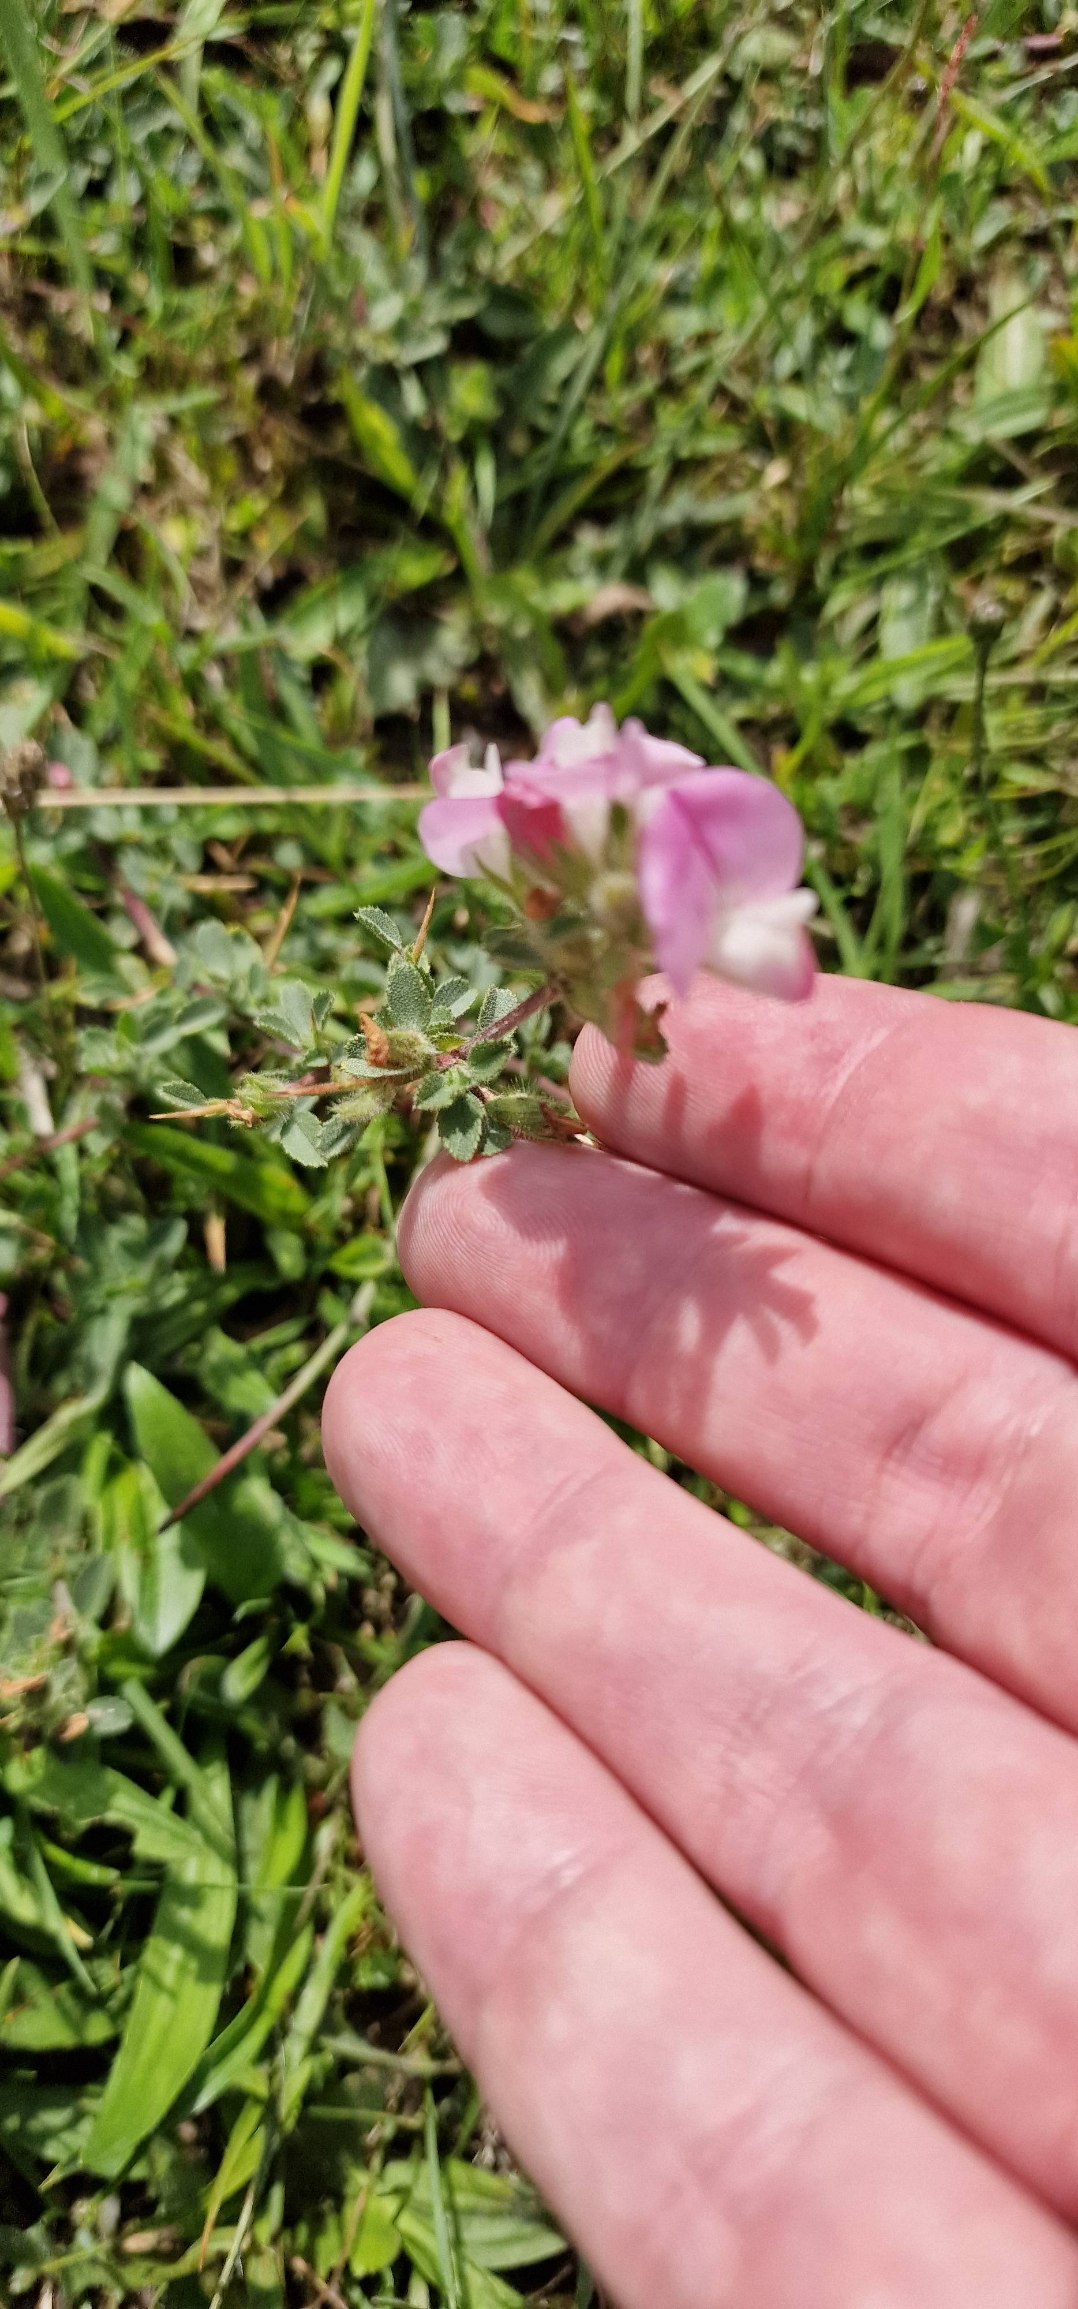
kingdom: Plantae
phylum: Tracheophyta
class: Magnoliopsida
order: Fabales
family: Fabaceae
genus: Ononis
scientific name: Ononis spinosa
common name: Mark-krageklo
